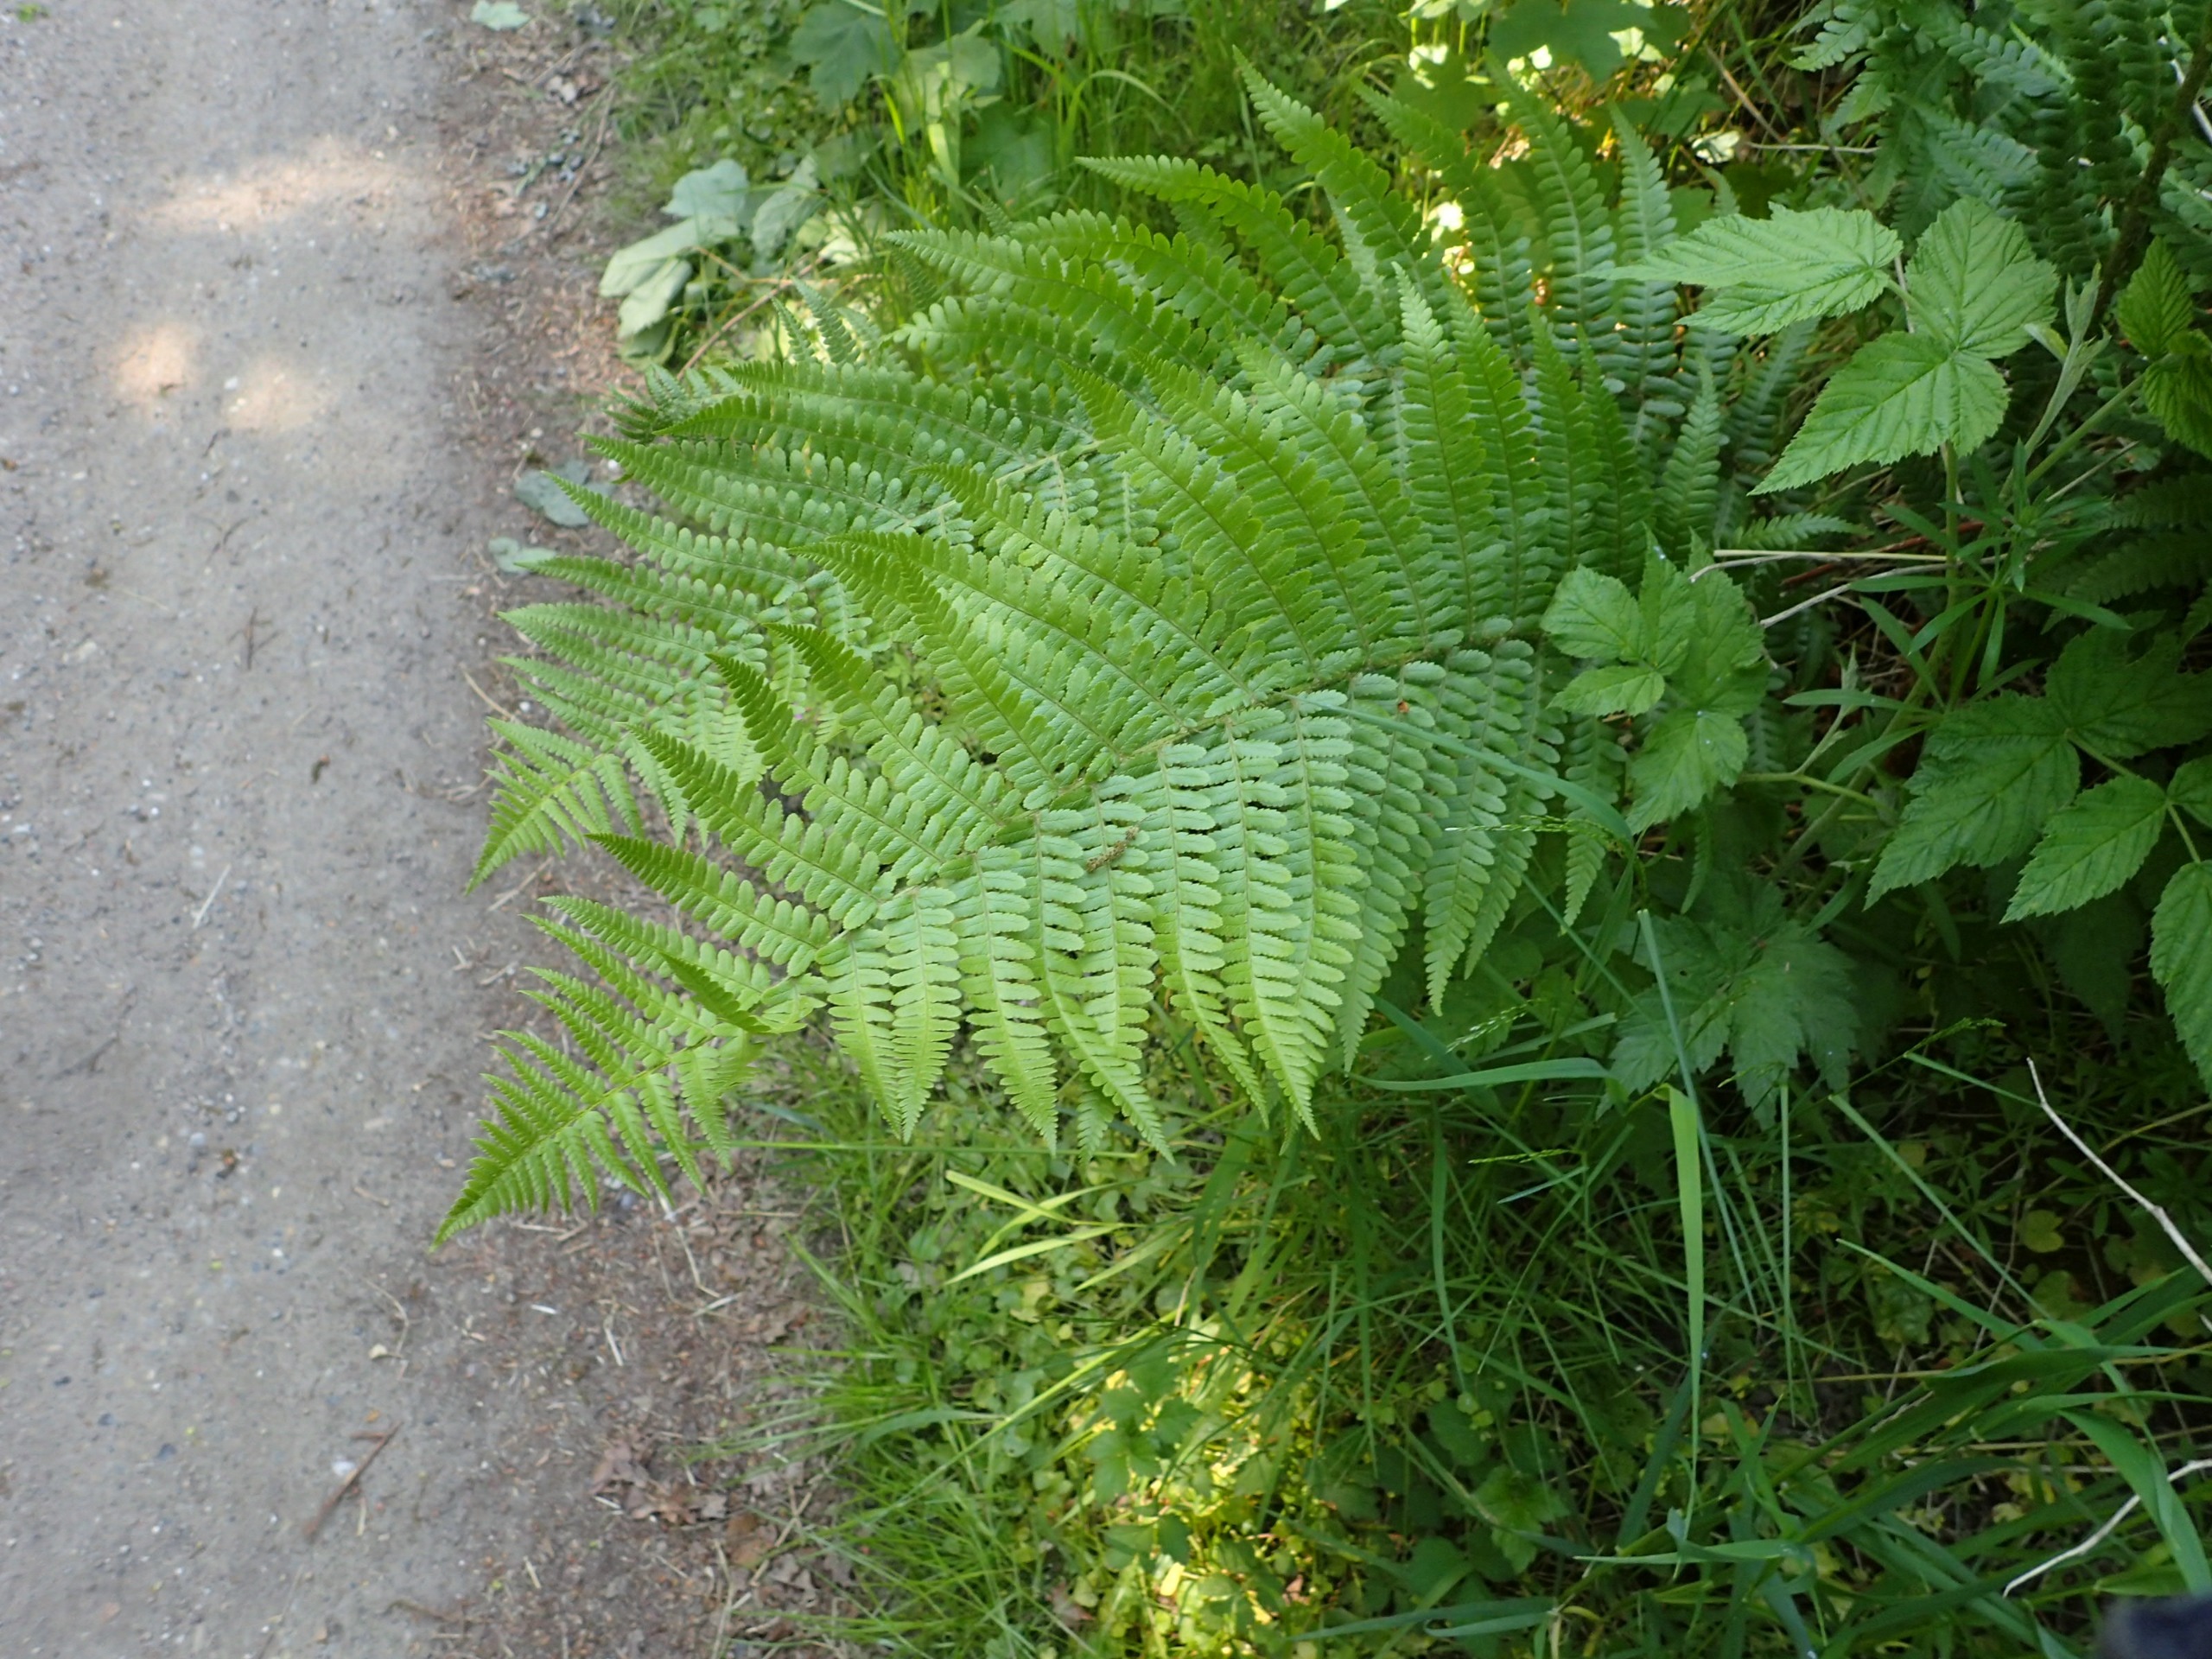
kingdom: Plantae
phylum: Tracheophyta
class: Polypodiopsida
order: Polypodiales
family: Dryopteridaceae
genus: Dryopteris
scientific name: Dryopteris filix-mas
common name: Almindelig mangeløv
